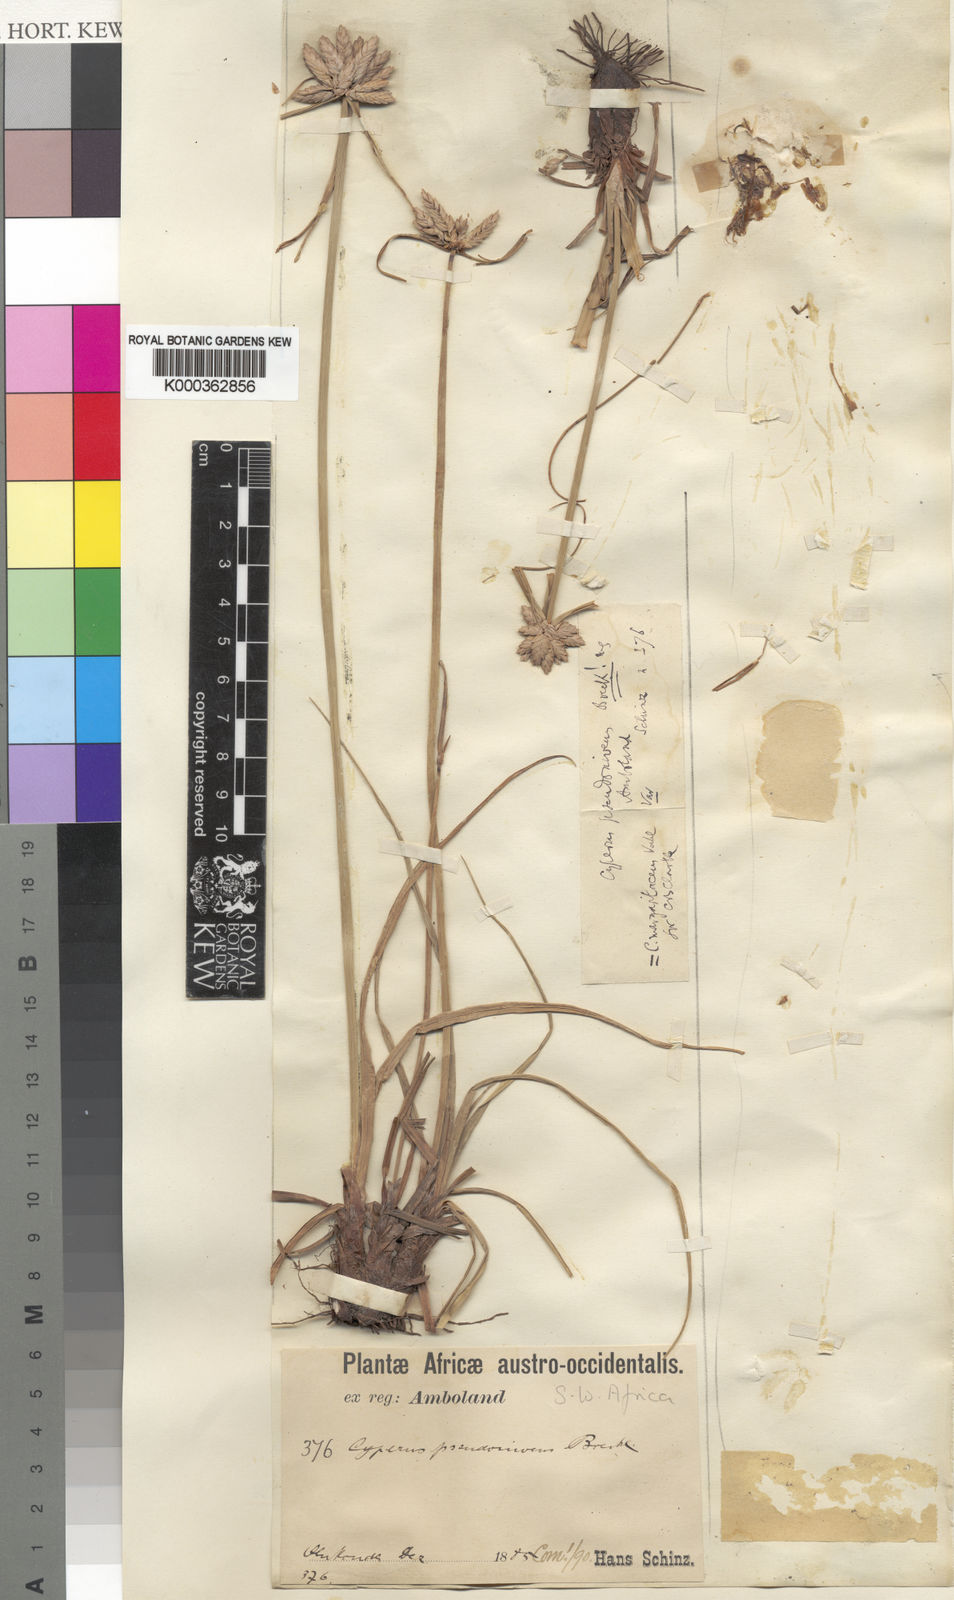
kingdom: Plantae
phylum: Tracheophyta
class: Liliopsida
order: Poales
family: Cyperaceae
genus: Cyperus
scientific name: Cyperus margaritaceus
